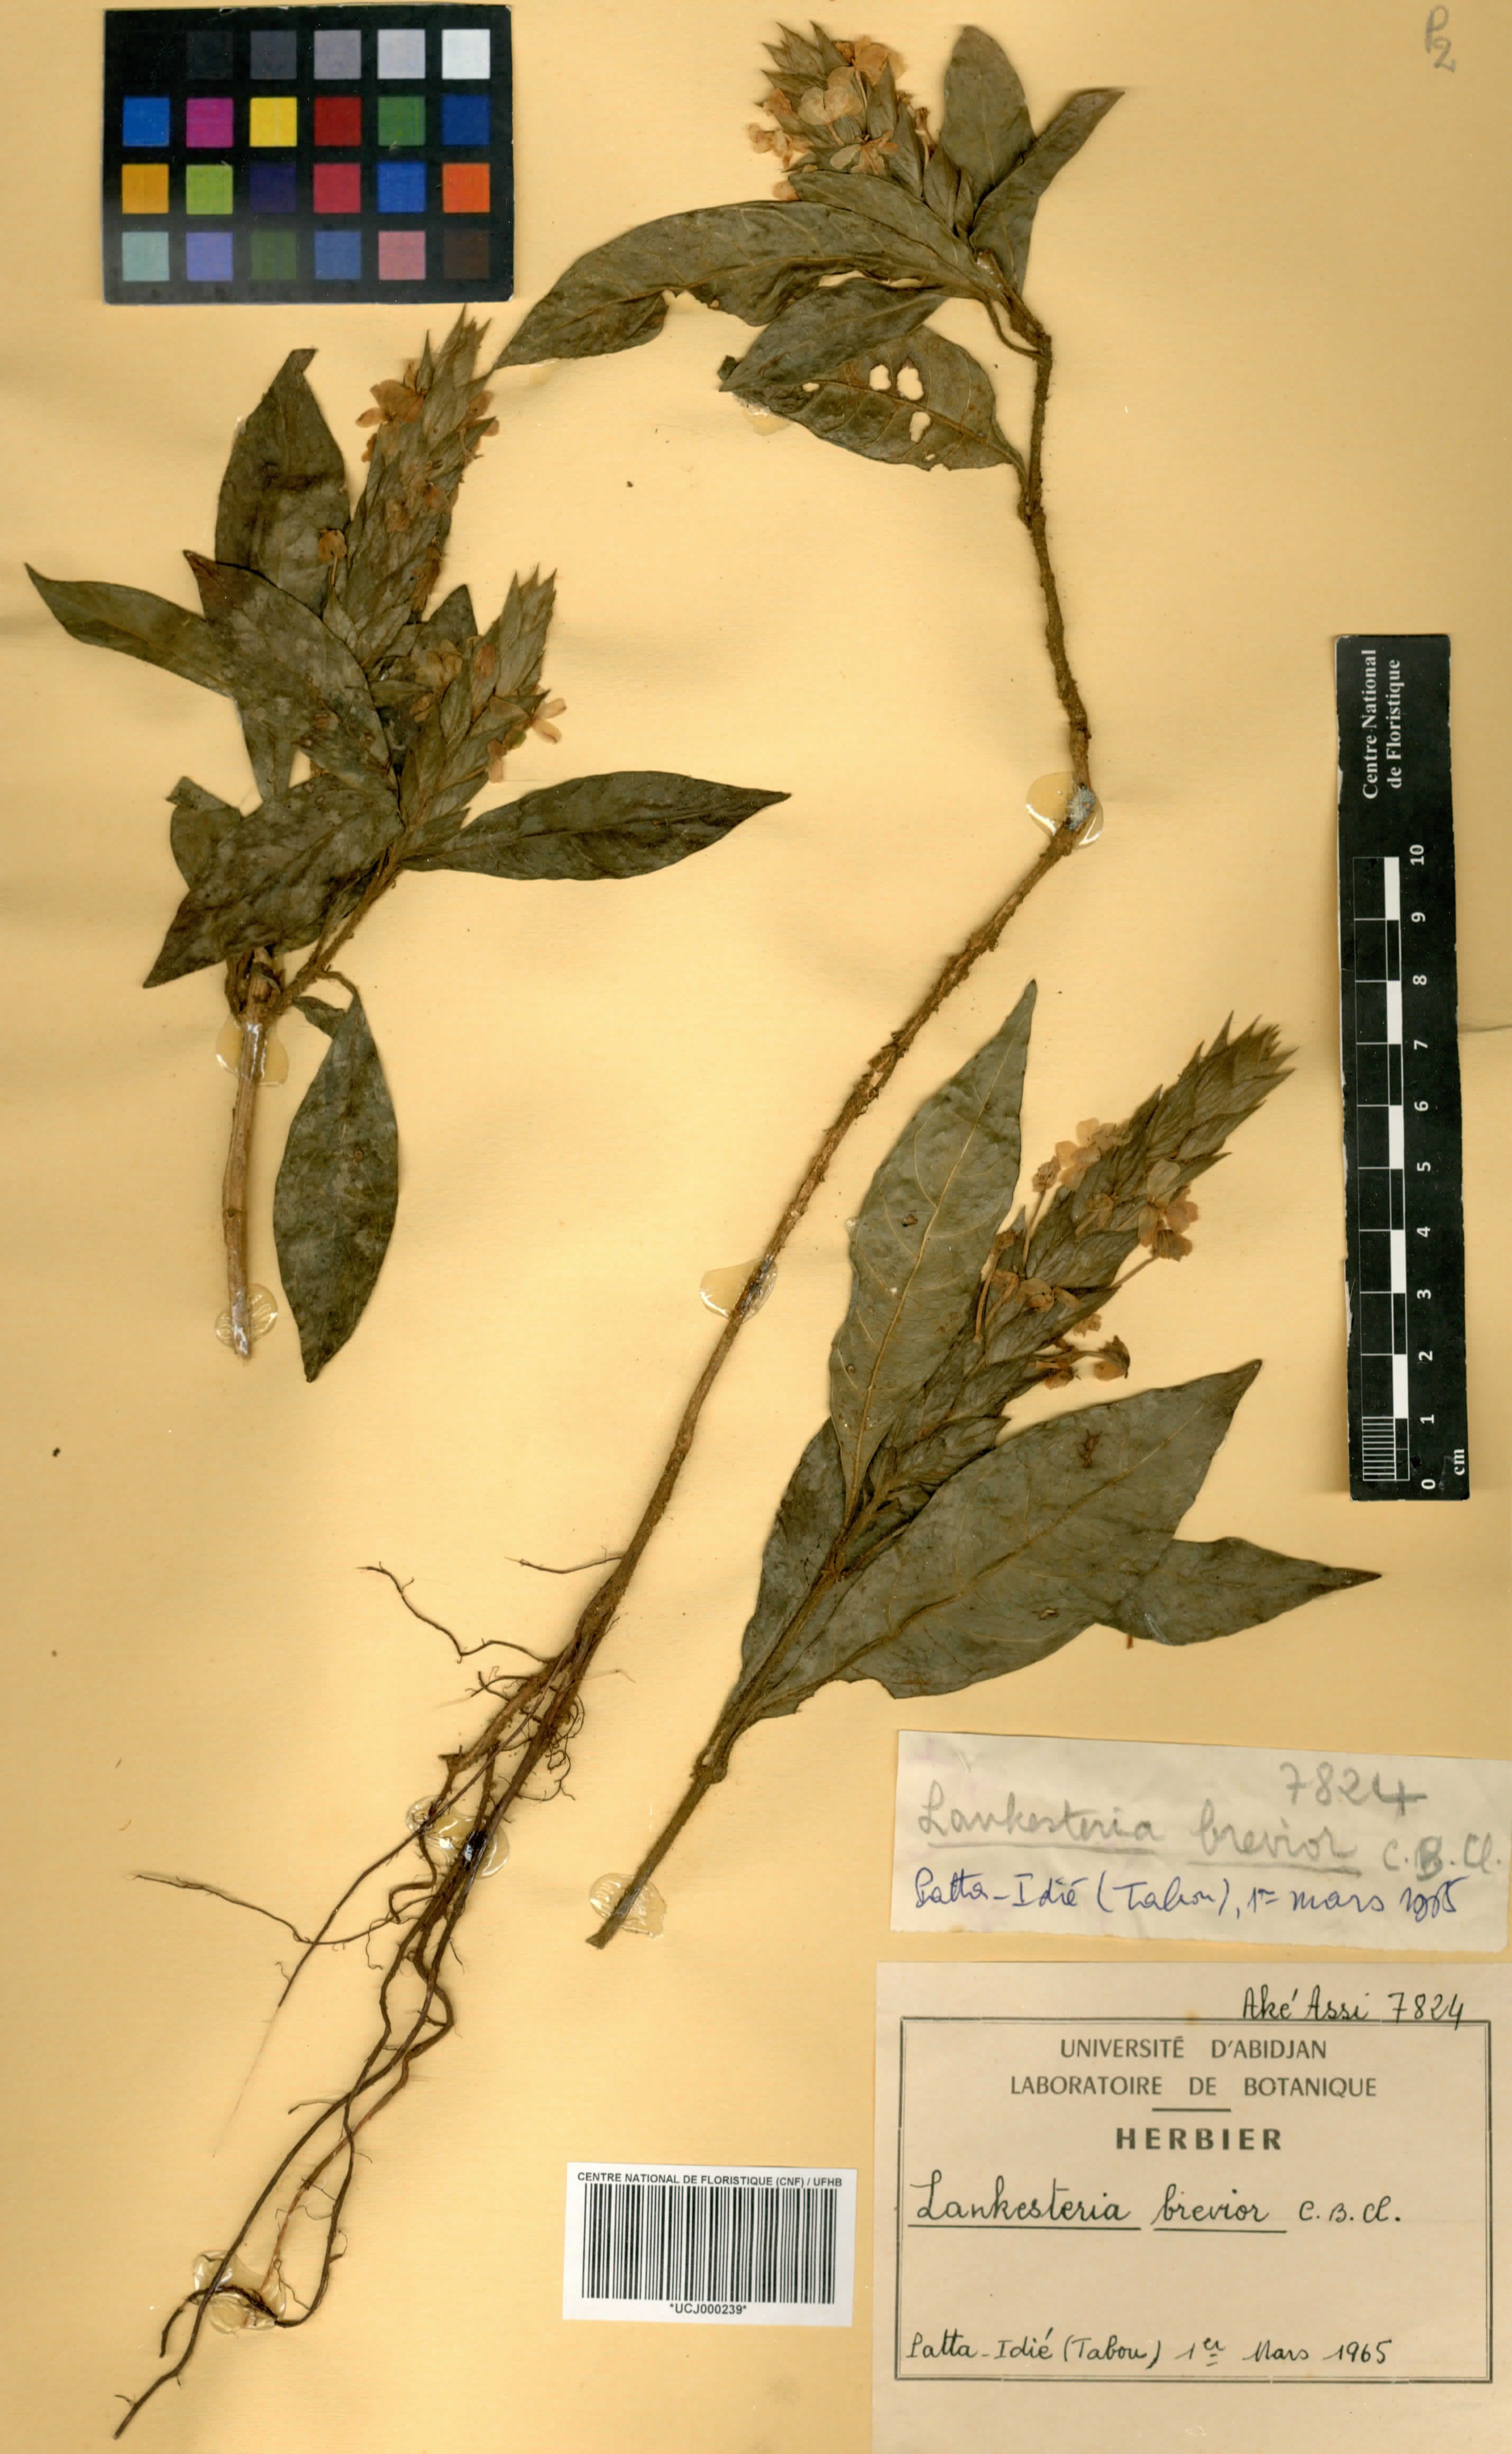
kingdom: Plantae
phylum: Tracheophyta
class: Magnoliopsida
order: Lamiales
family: Acanthaceae
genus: Lankesteria
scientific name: Lankesteria brevior
